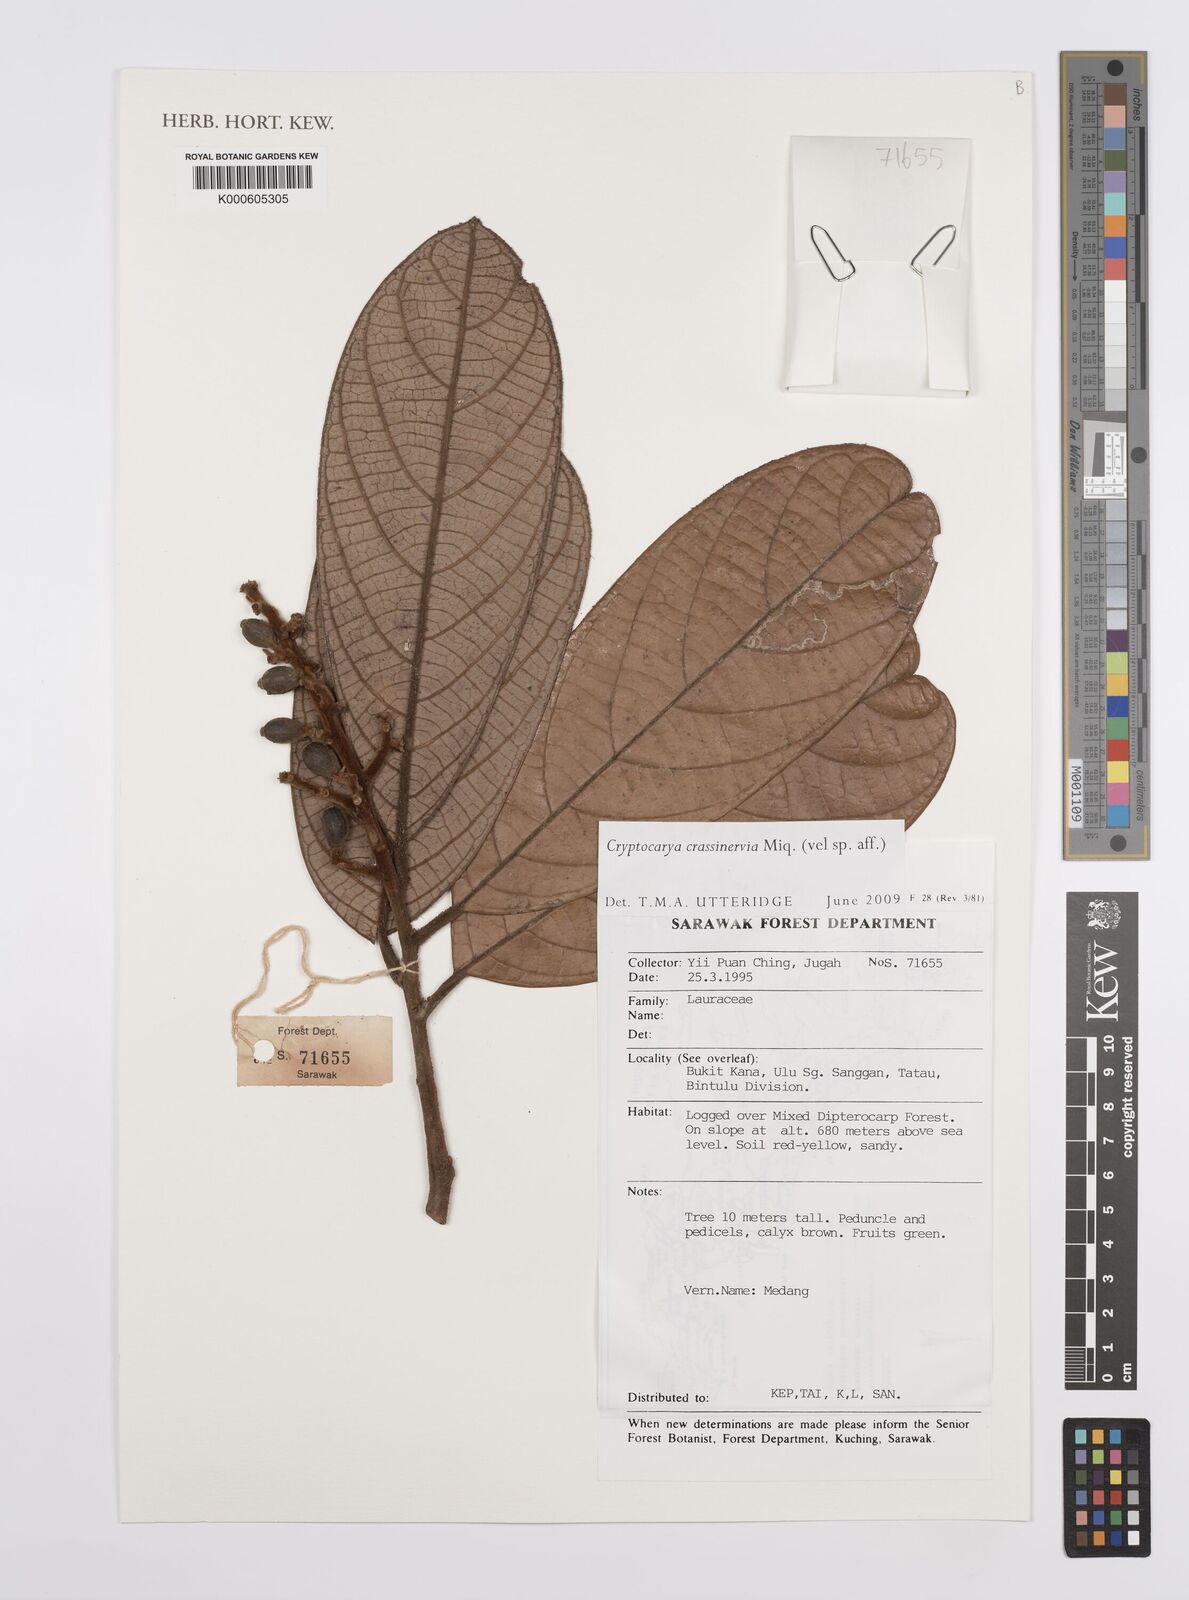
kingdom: Plantae
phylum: Tracheophyta
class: Magnoliopsida
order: Laurales
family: Lauraceae
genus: Cryptocarya
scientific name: Cryptocarya diversifolia
